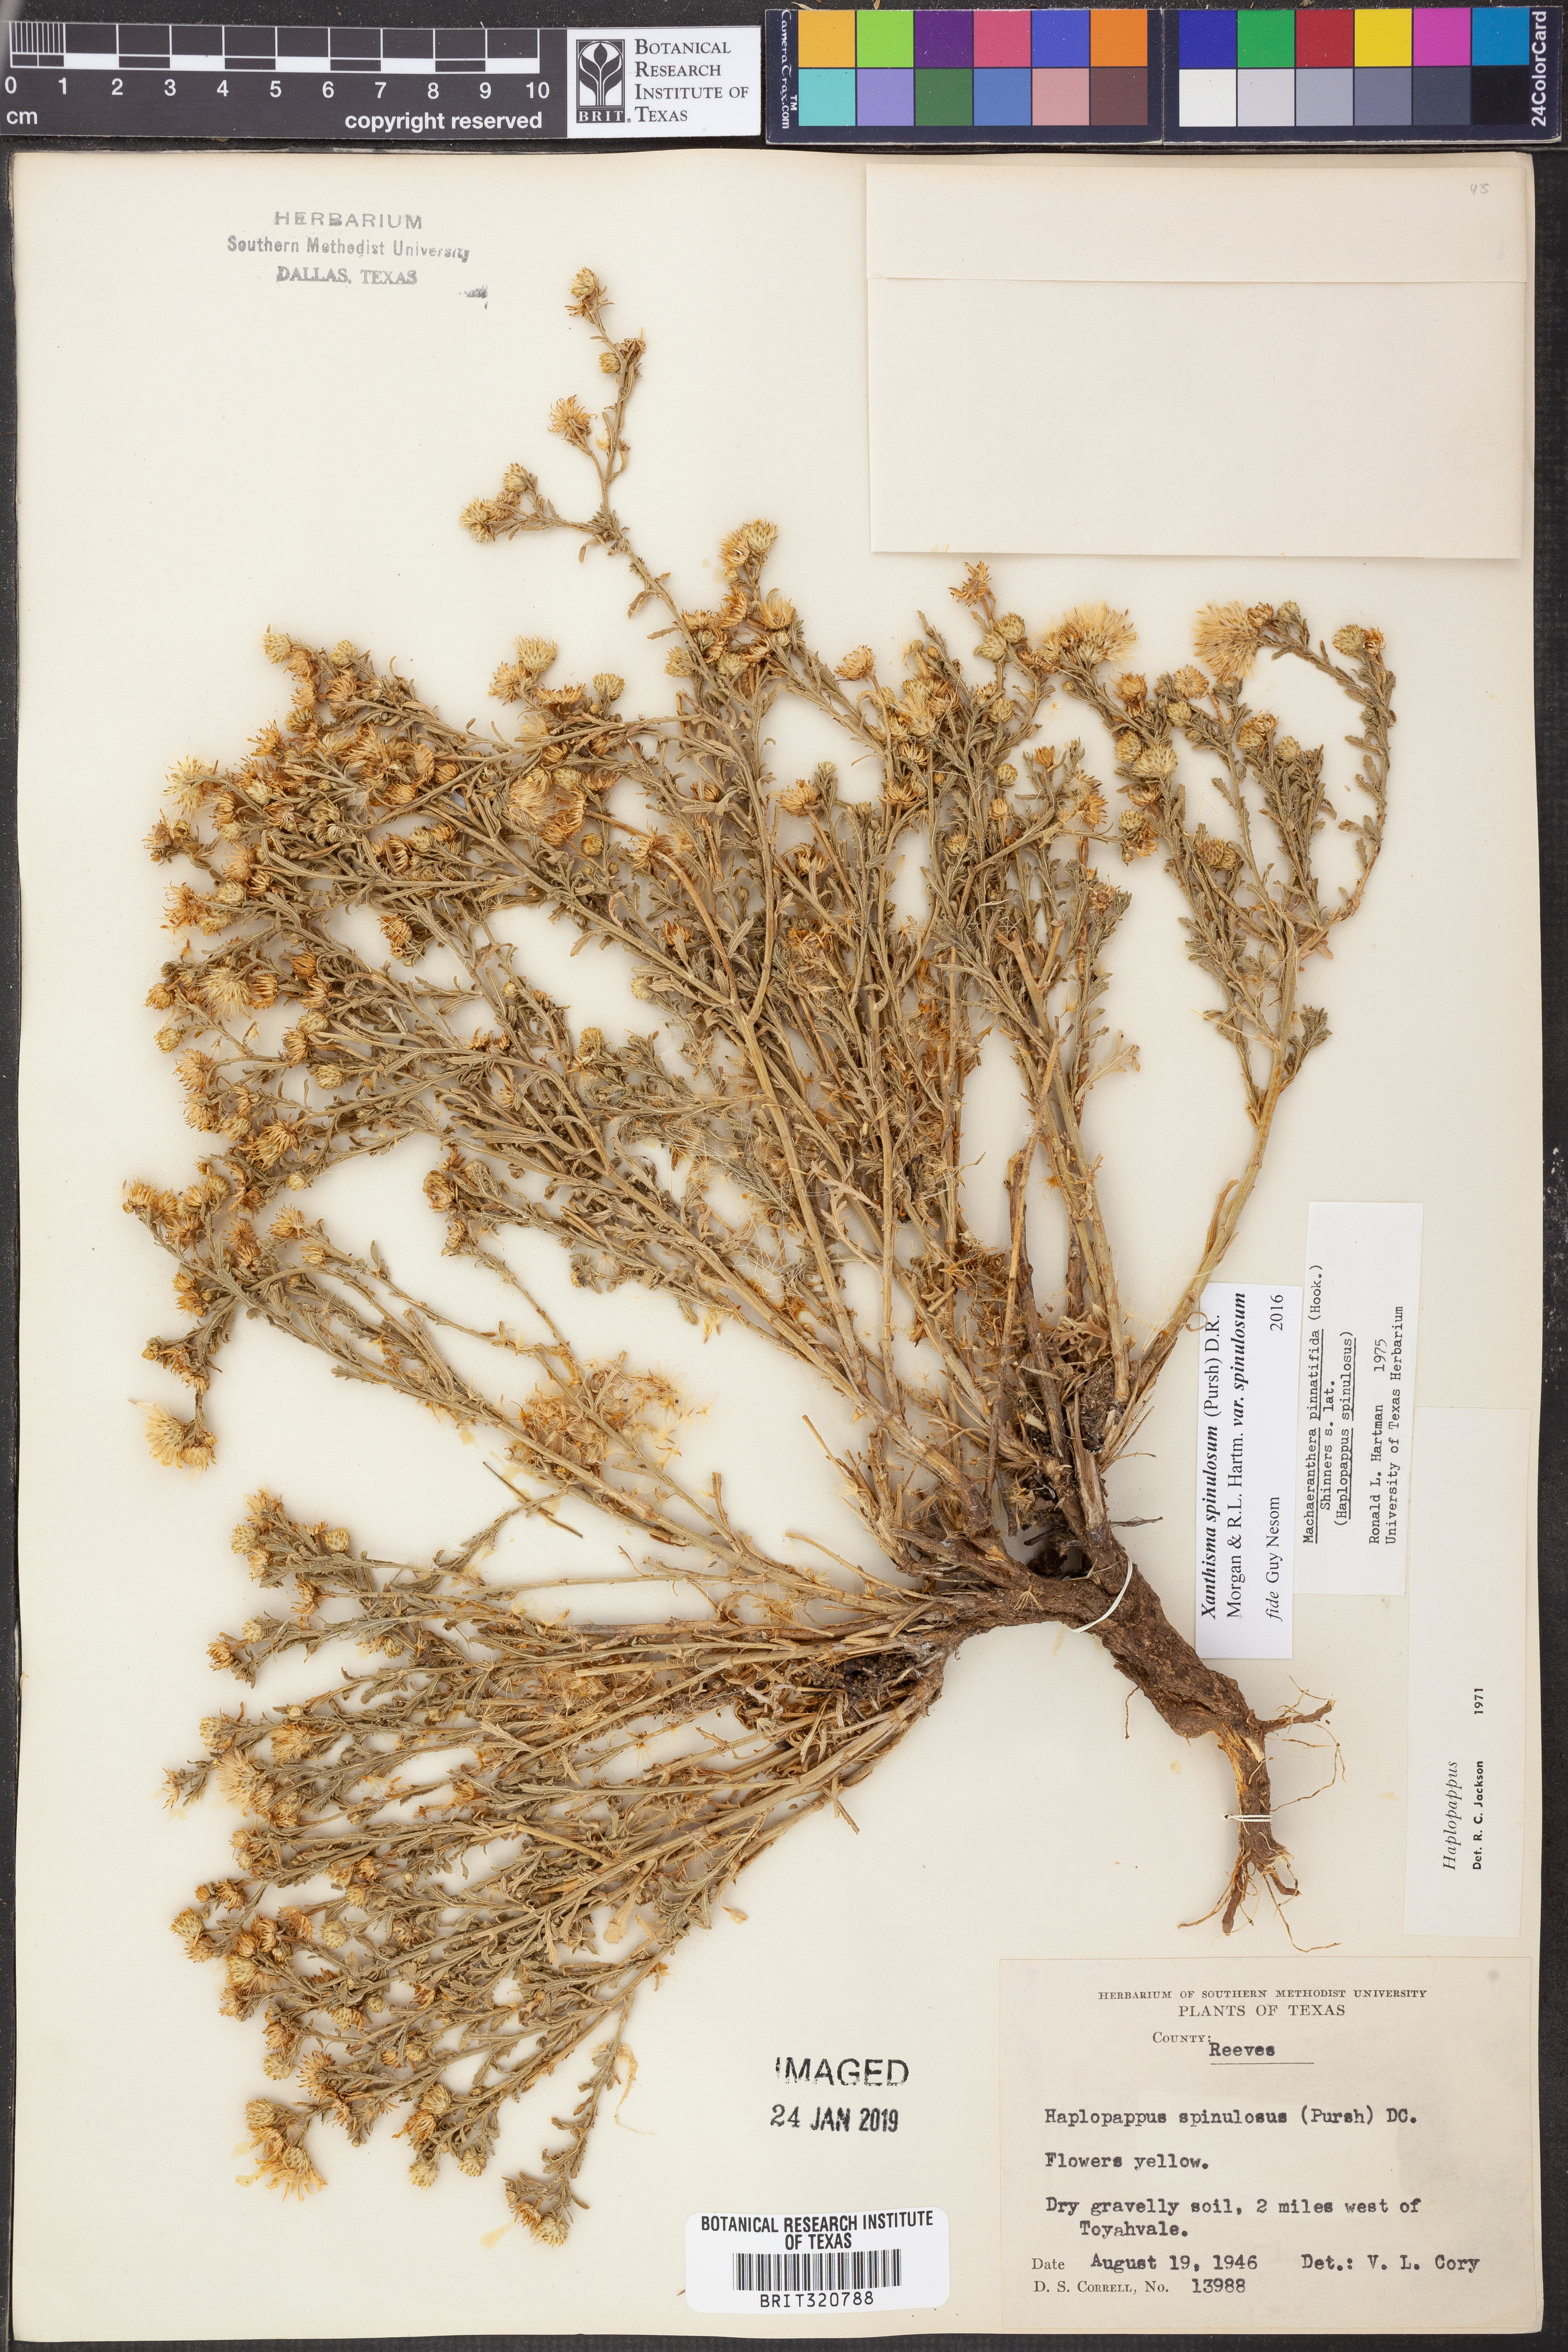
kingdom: Plantae
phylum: Tracheophyta
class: Magnoliopsida
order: Asterales
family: Asteraceae
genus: Xanthisma
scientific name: Xanthisma spinulosum
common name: Spiny goldenweed
